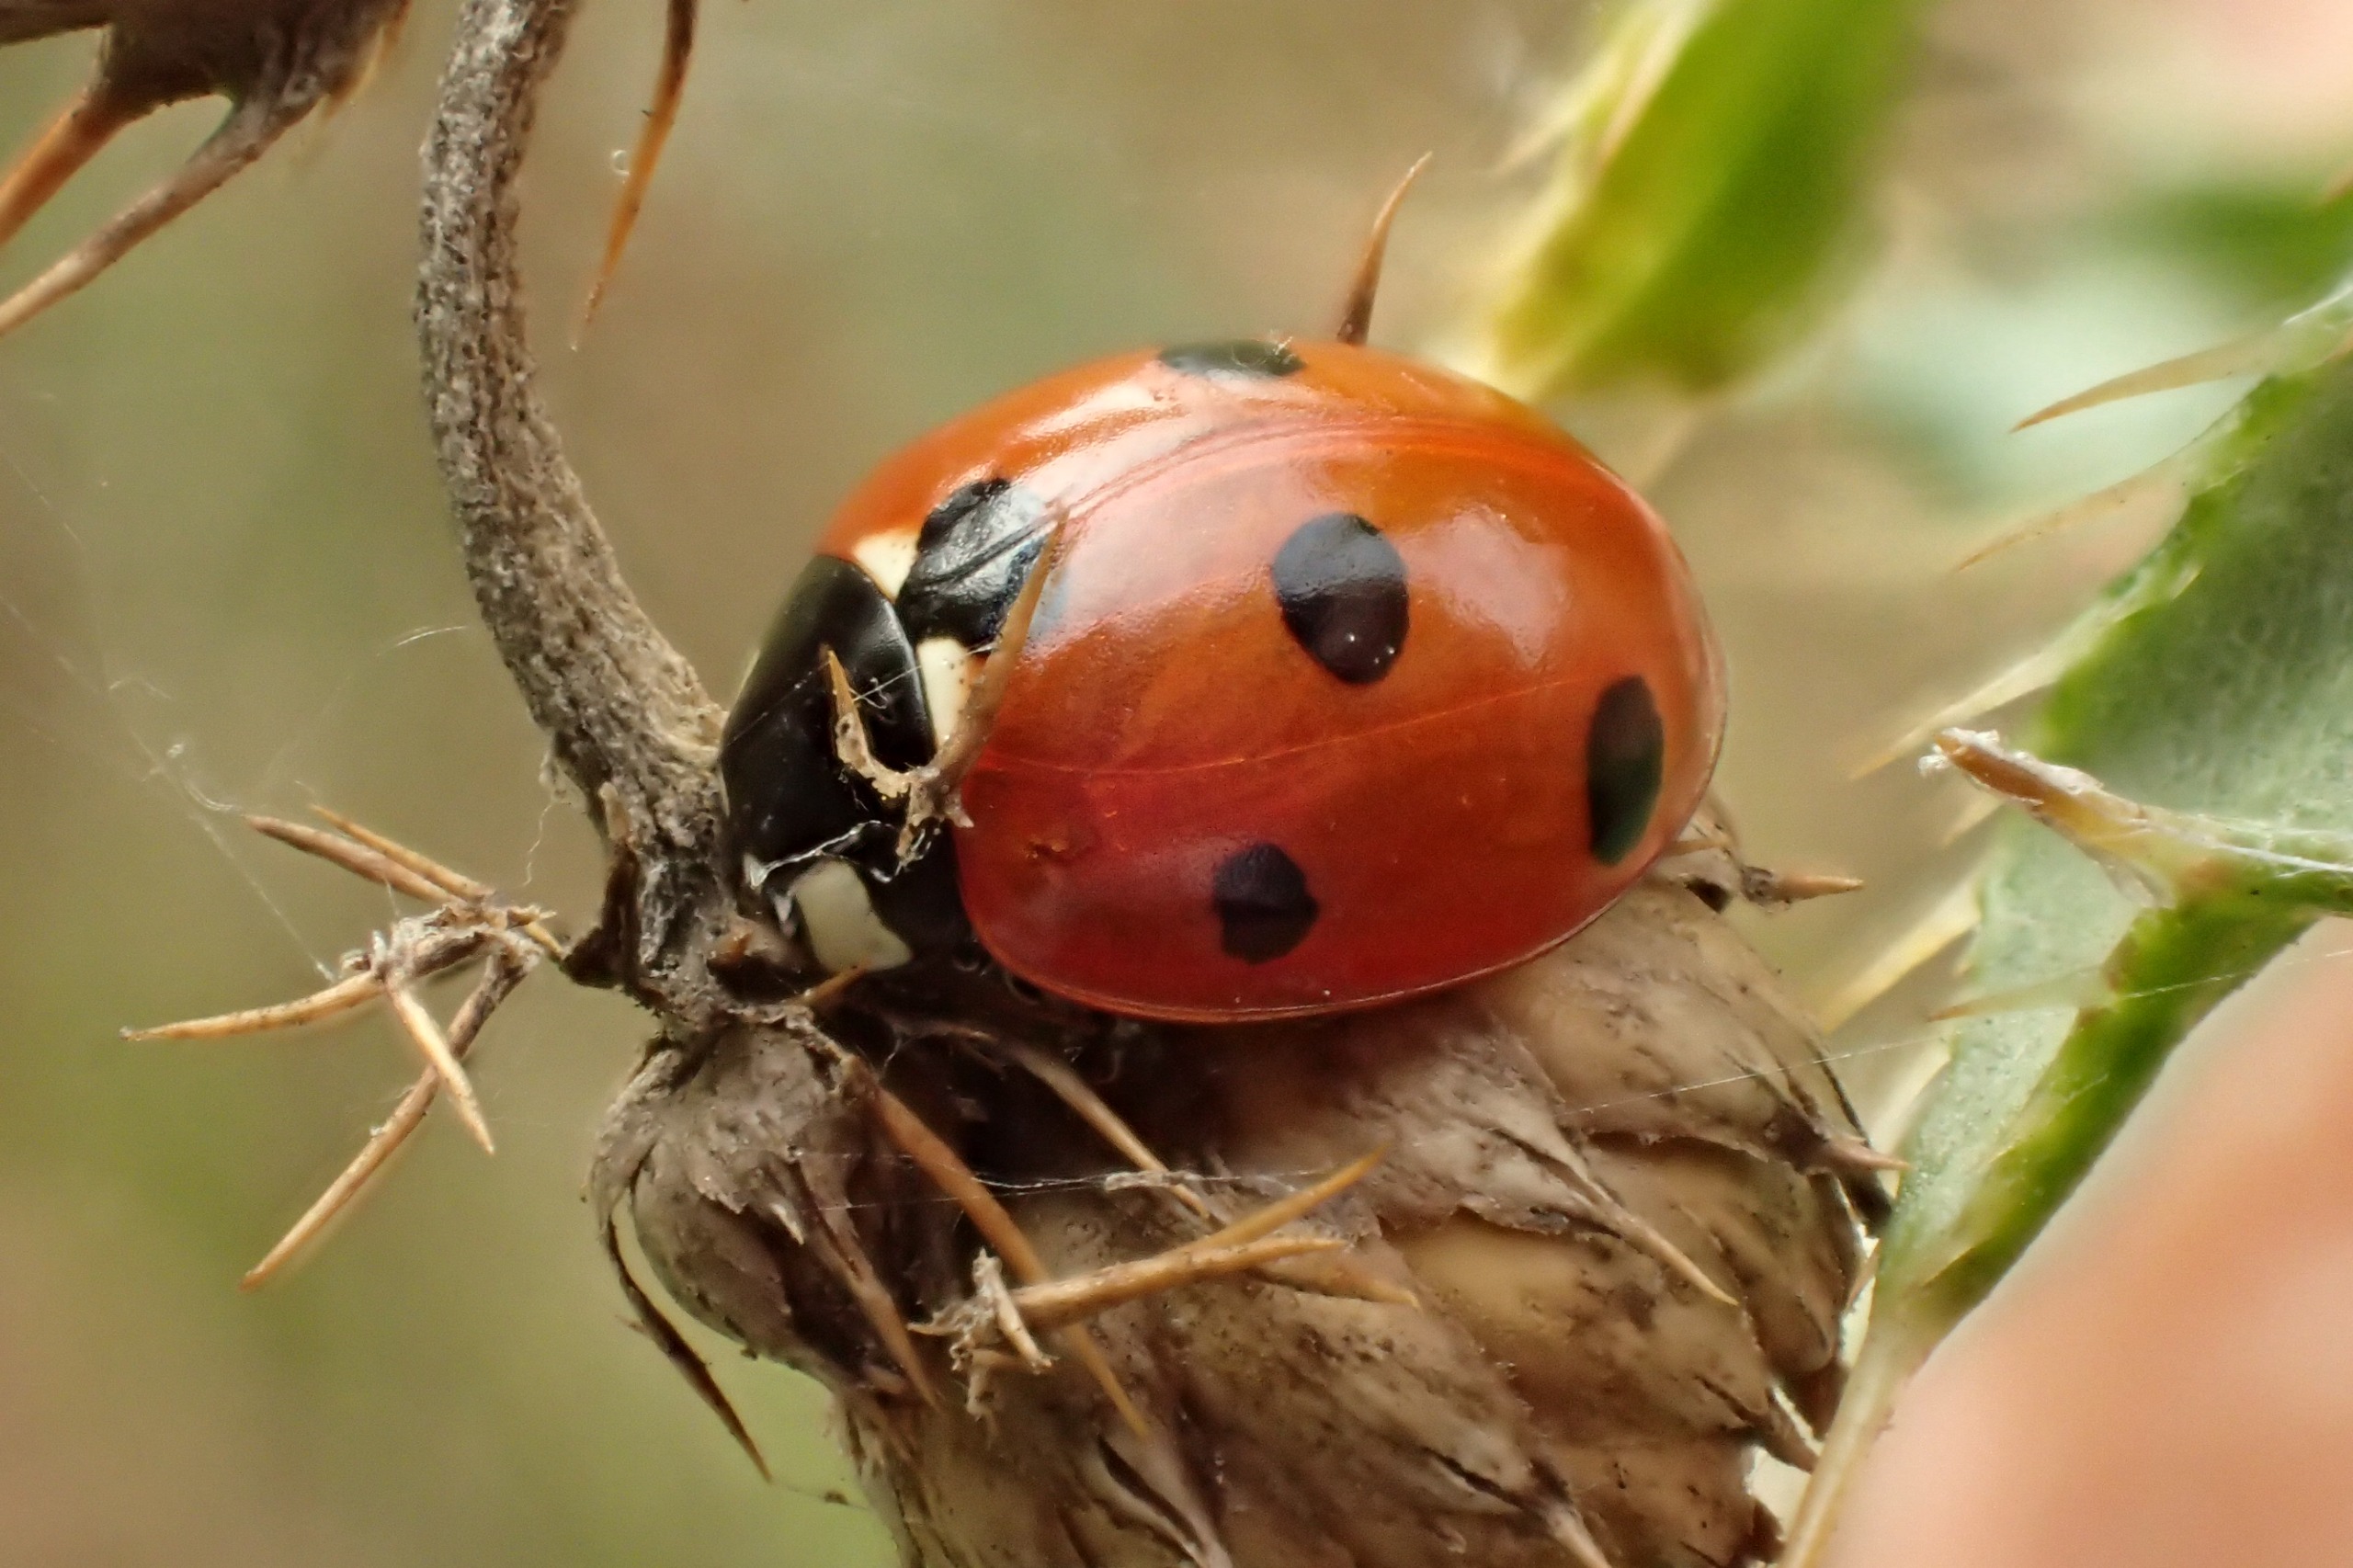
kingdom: Animalia
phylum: Arthropoda
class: Insecta
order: Coleoptera
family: Coccinellidae
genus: Coccinella
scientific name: Coccinella septempunctata
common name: Syvplettet mariehøne
